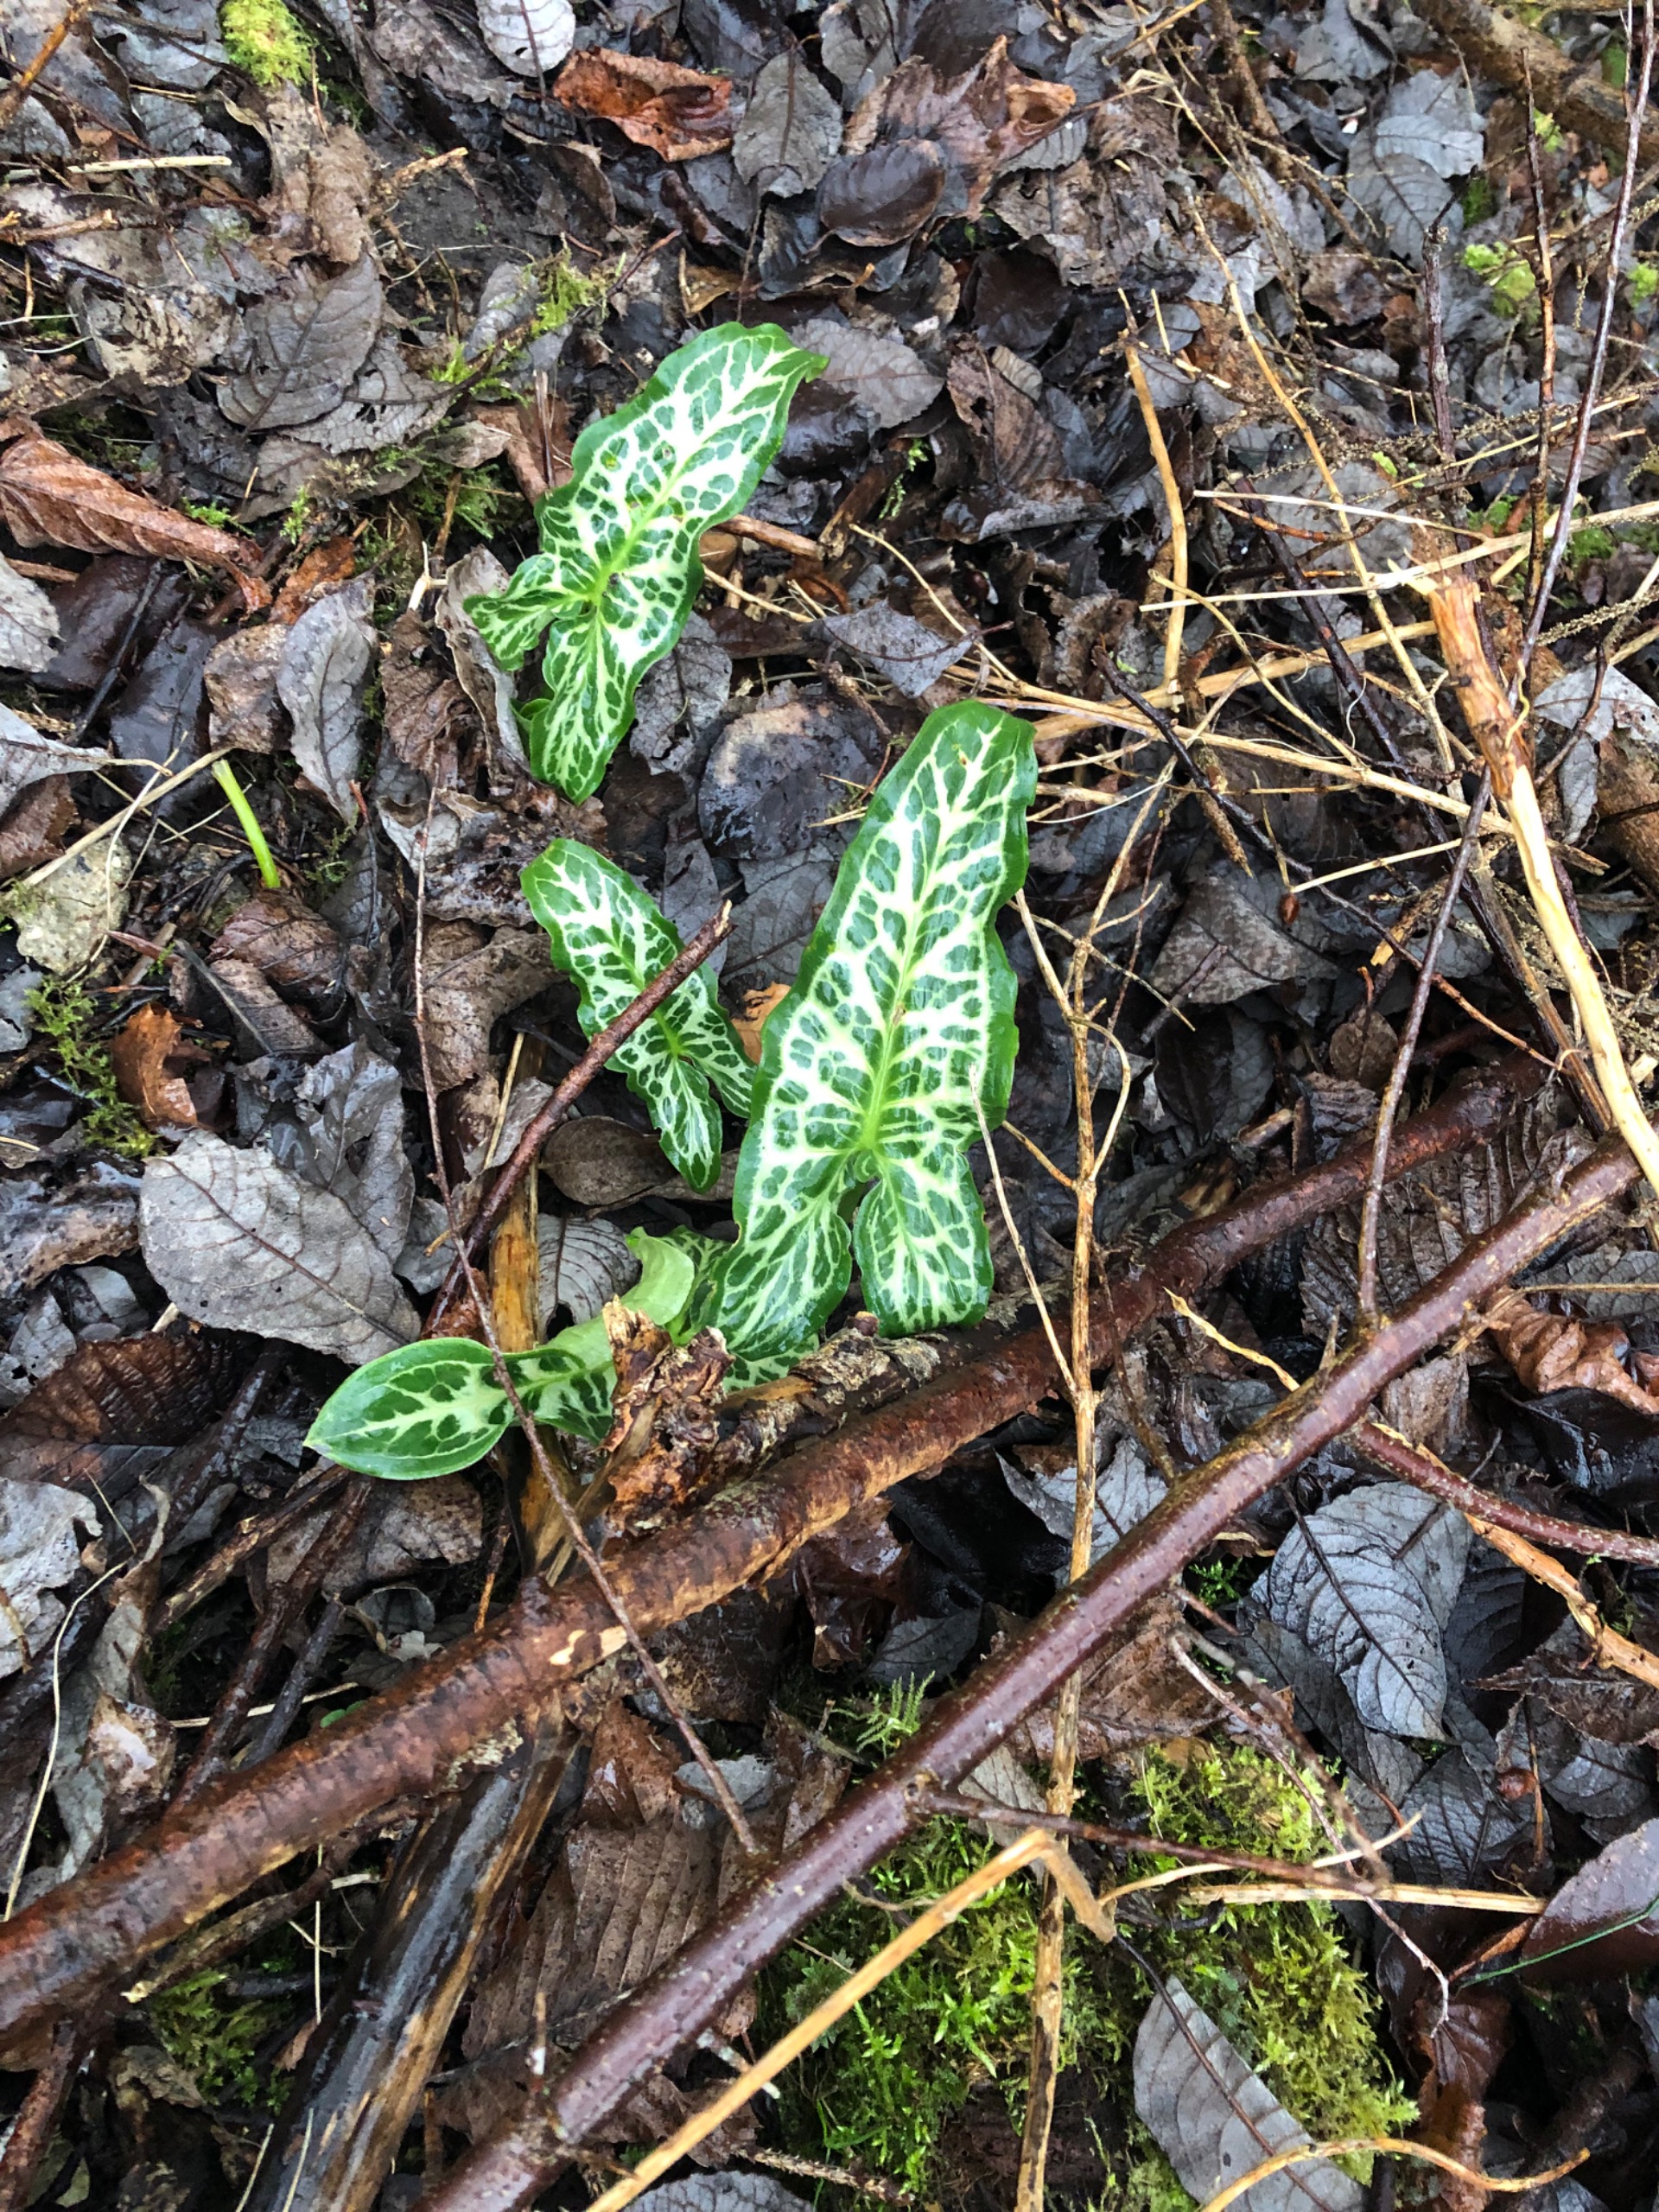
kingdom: Plantae
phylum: Tracheophyta
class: Liliopsida
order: Alismatales
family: Araceae
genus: Arum
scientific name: Arum italicum
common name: Italiensk arum
